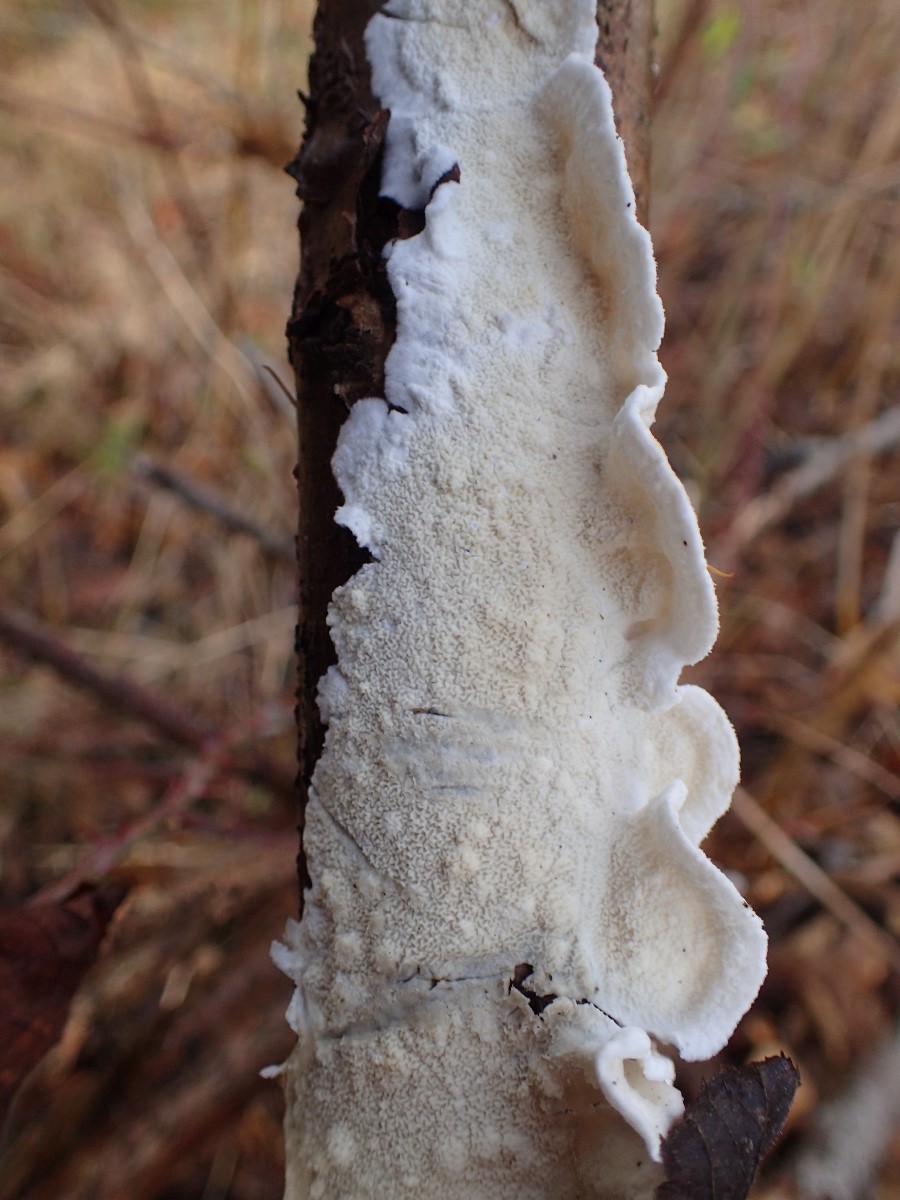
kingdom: Fungi
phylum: Basidiomycota
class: Agaricomycetes
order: Polyporales
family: Irpicaceae
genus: Byssomerulius
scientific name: Byssomerulius corium
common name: læder-åresvamp
